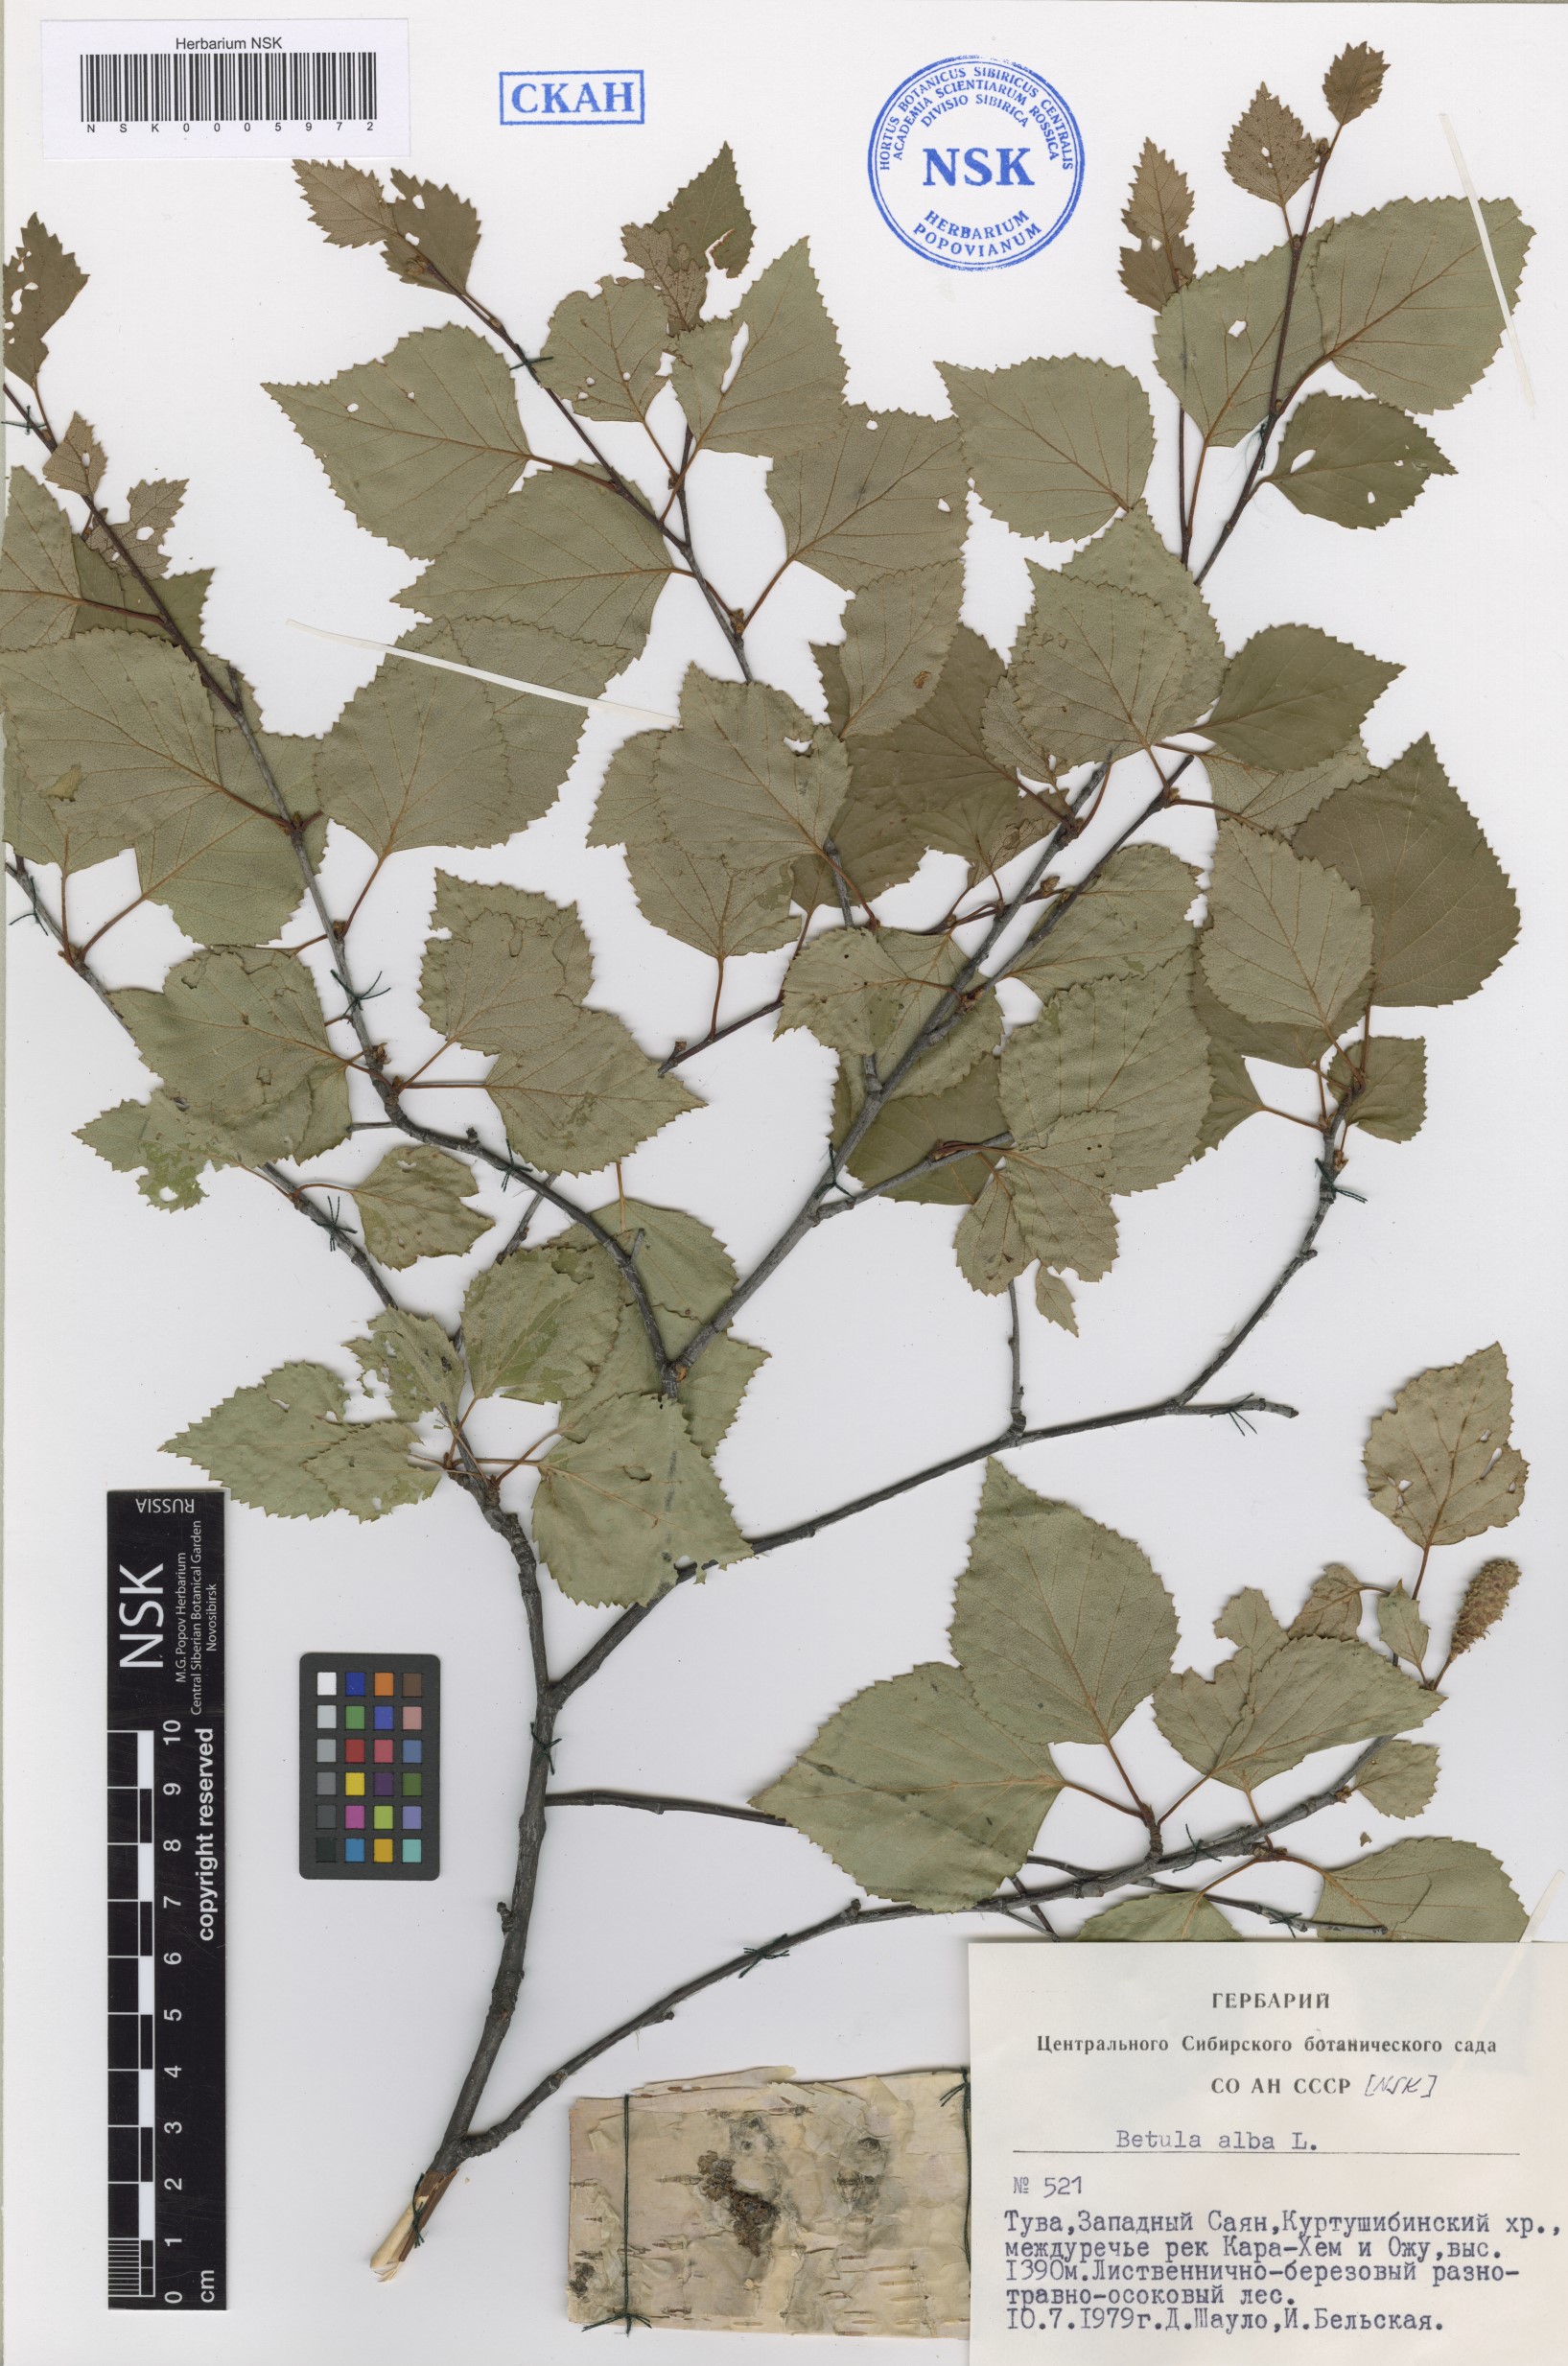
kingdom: Plantae
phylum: Tracheophyta
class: Magnoliopsida
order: Fagales
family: Betulaceae
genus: Betula
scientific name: Betula pubescens
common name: Downy birch
